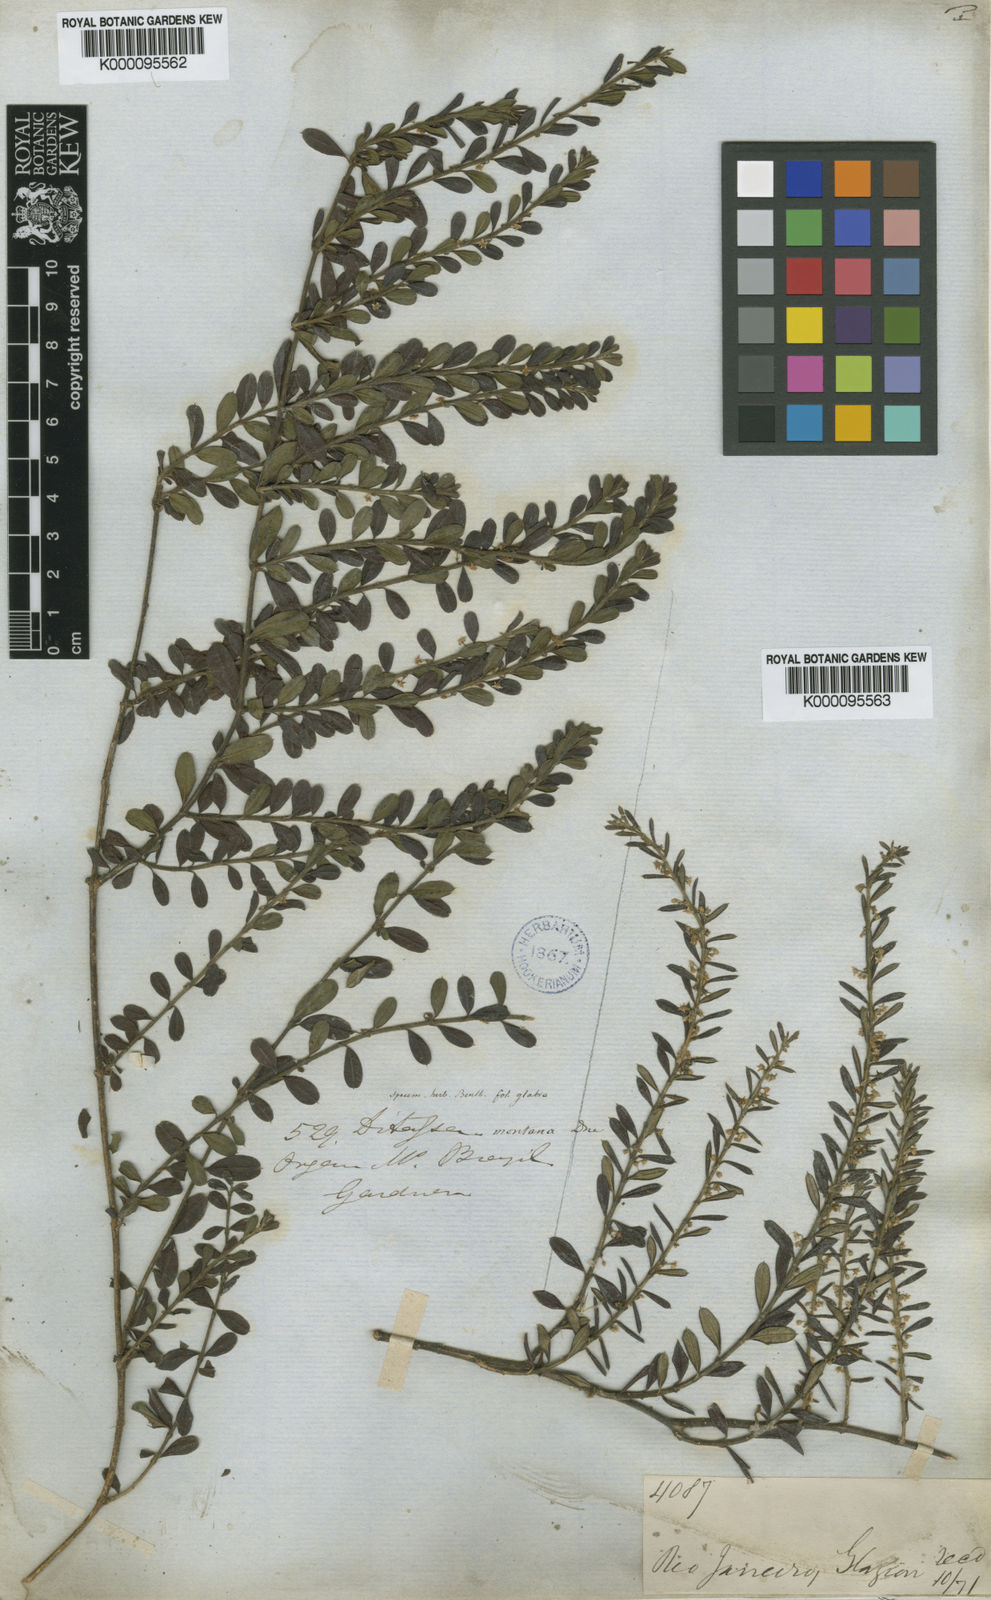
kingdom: Plantae
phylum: Tracheophyta
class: Magnoliopsida
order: Gentianales
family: Apocynaceae
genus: Ditassa
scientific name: Ditassa mucronata
